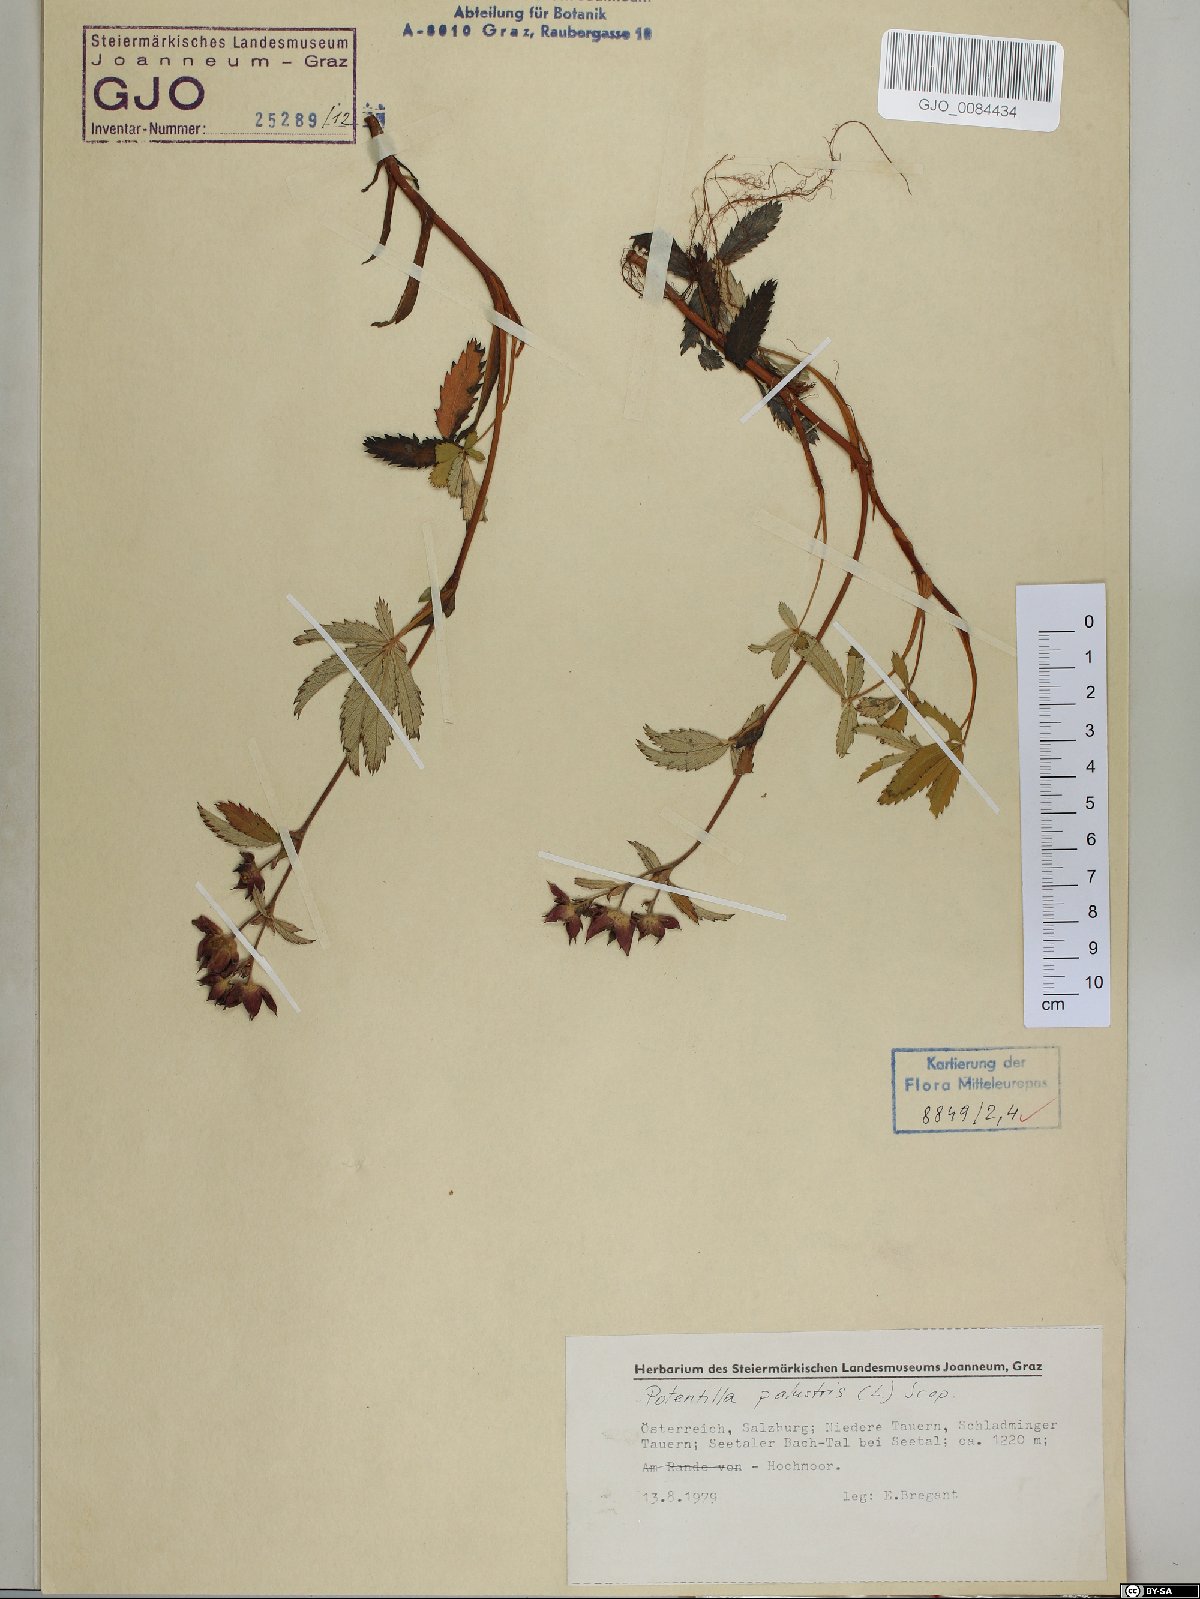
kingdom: Plantae
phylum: Tracheophyta
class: Magnoliopsida
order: Rosales
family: Rosaceae
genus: Comarum
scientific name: Comarum palustre
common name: Marsh cinquefoil
